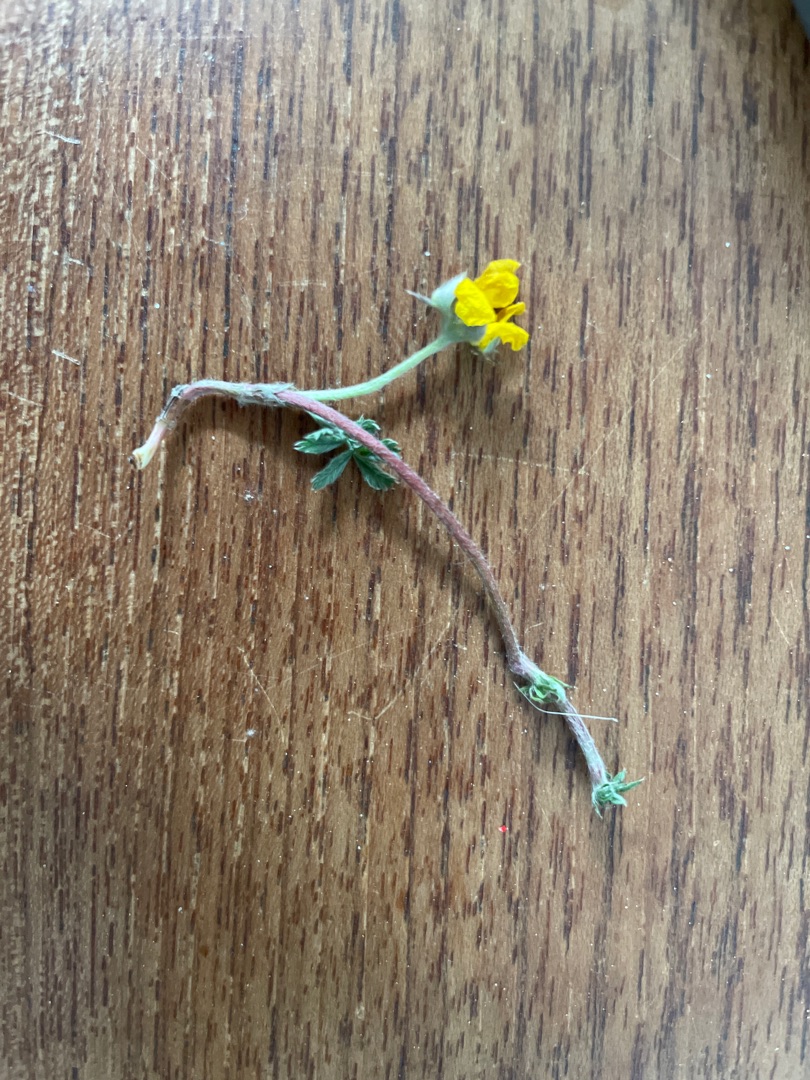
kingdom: Plantae
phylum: Tracheophyta
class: Magnoliopsida
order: Rosales
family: Rosaceae
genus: Argentina
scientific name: Argentina anserina
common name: Gåsepotentil
